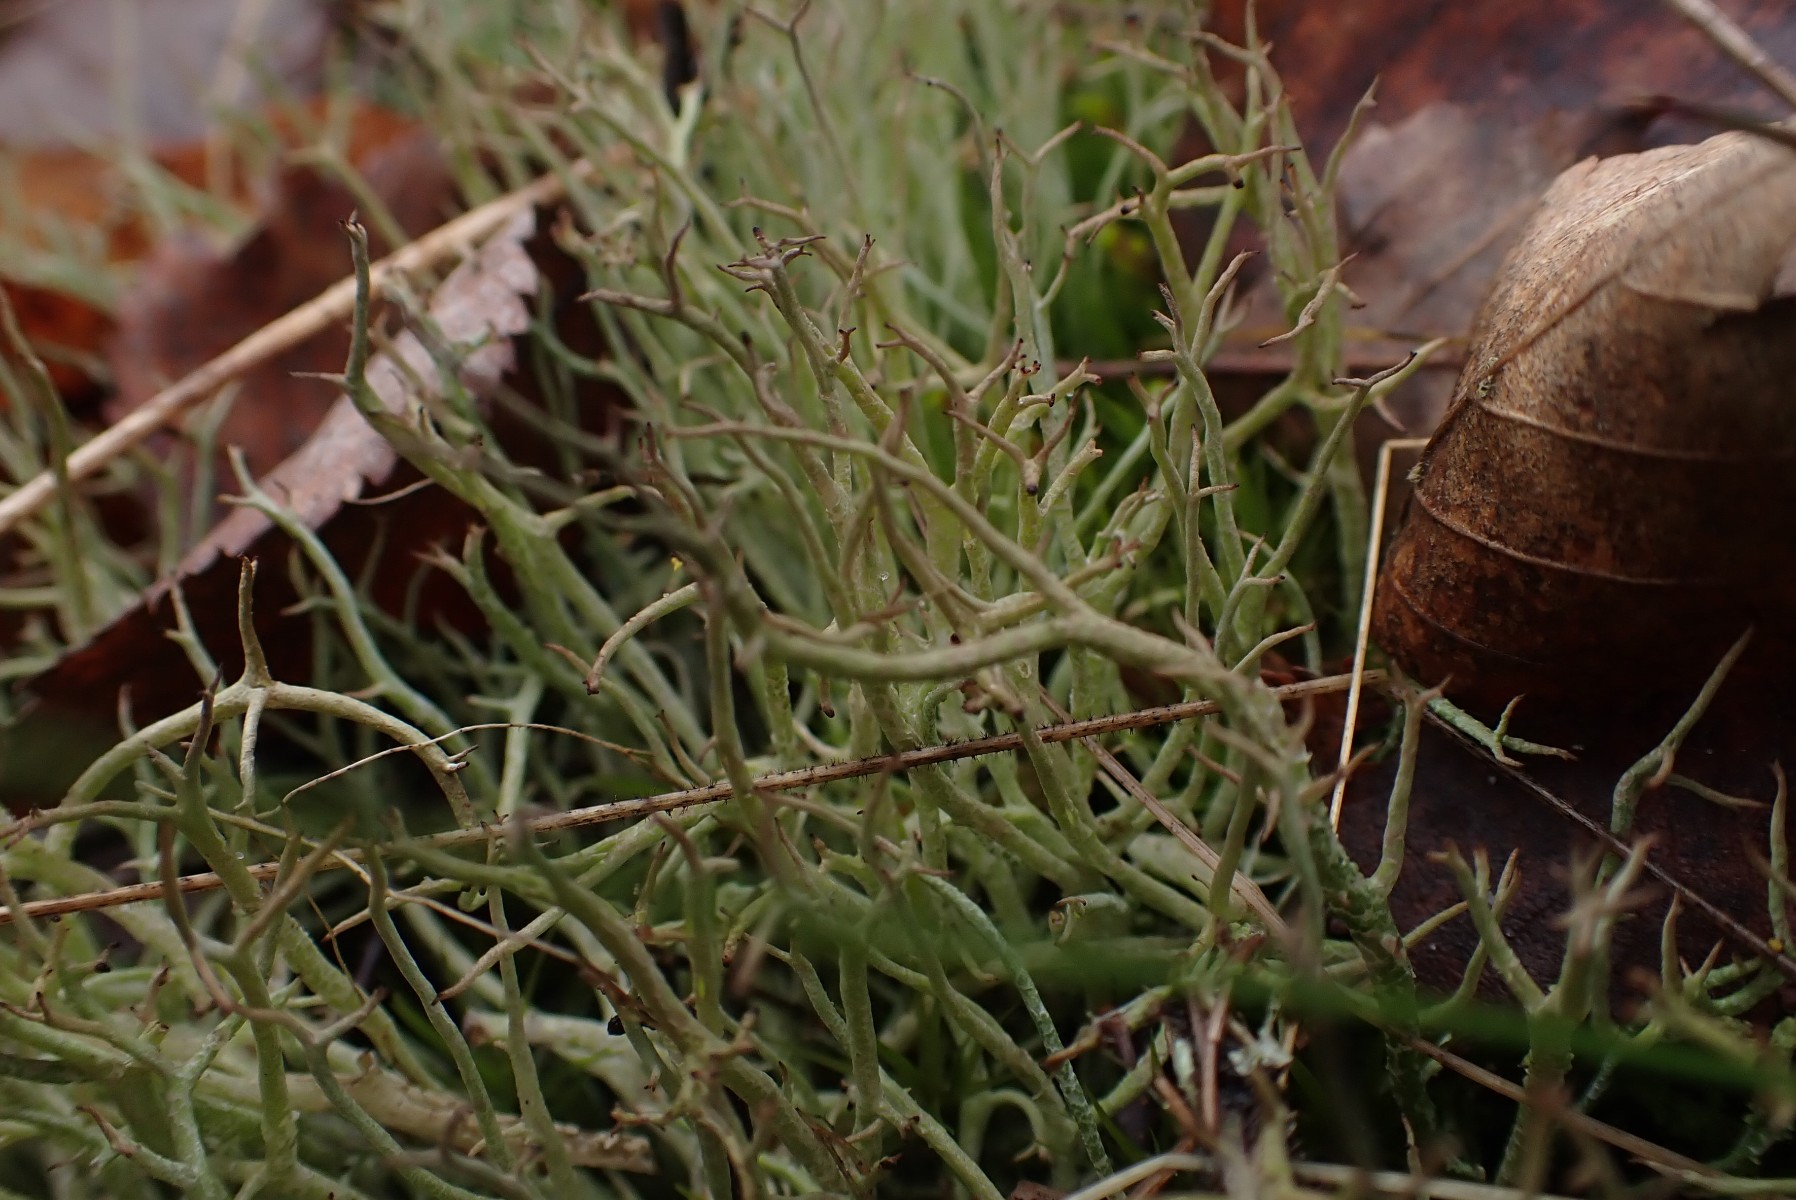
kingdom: Fungi
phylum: Ascomycota
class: Lecanoromycetes
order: Lecanorales
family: Cladoniaceae
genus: Cladonia
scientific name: Cladonia furcata
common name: kløftet bægerlav
